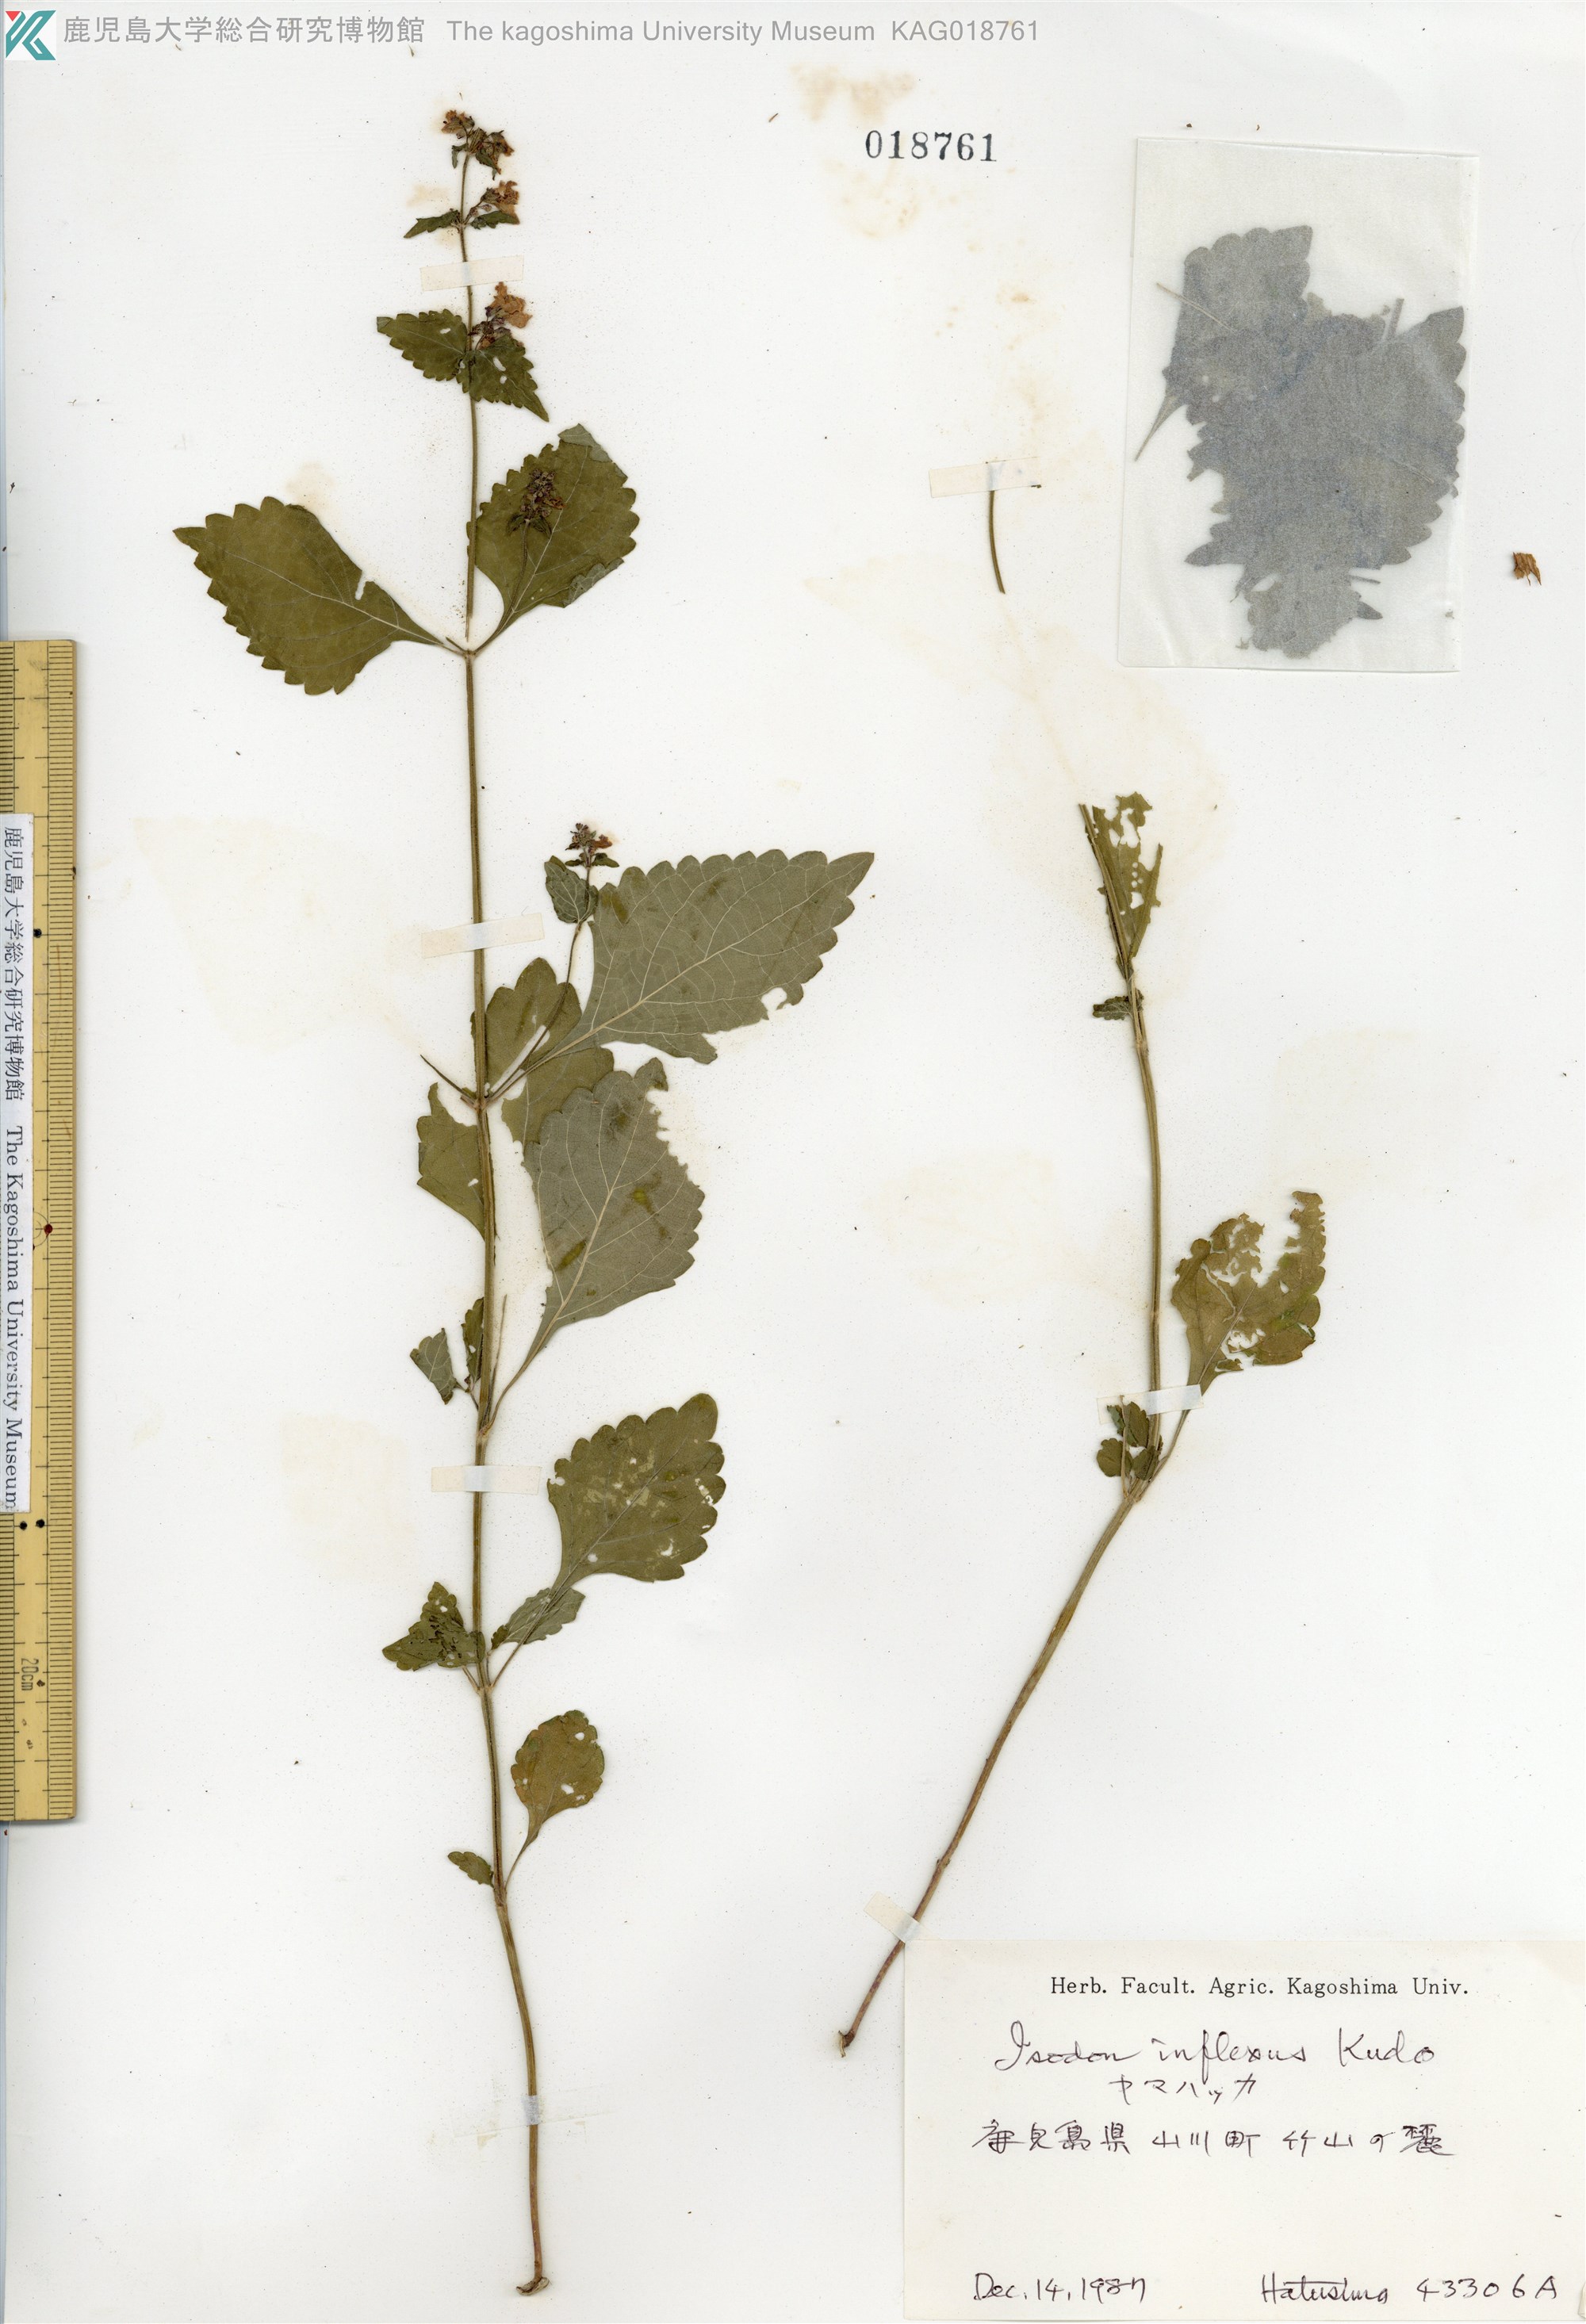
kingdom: Plantae
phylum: Tracheophyta
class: Magnoliopsida
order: Lamiales
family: Lamiaceae
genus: Isodon
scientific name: Isodon inflexus
